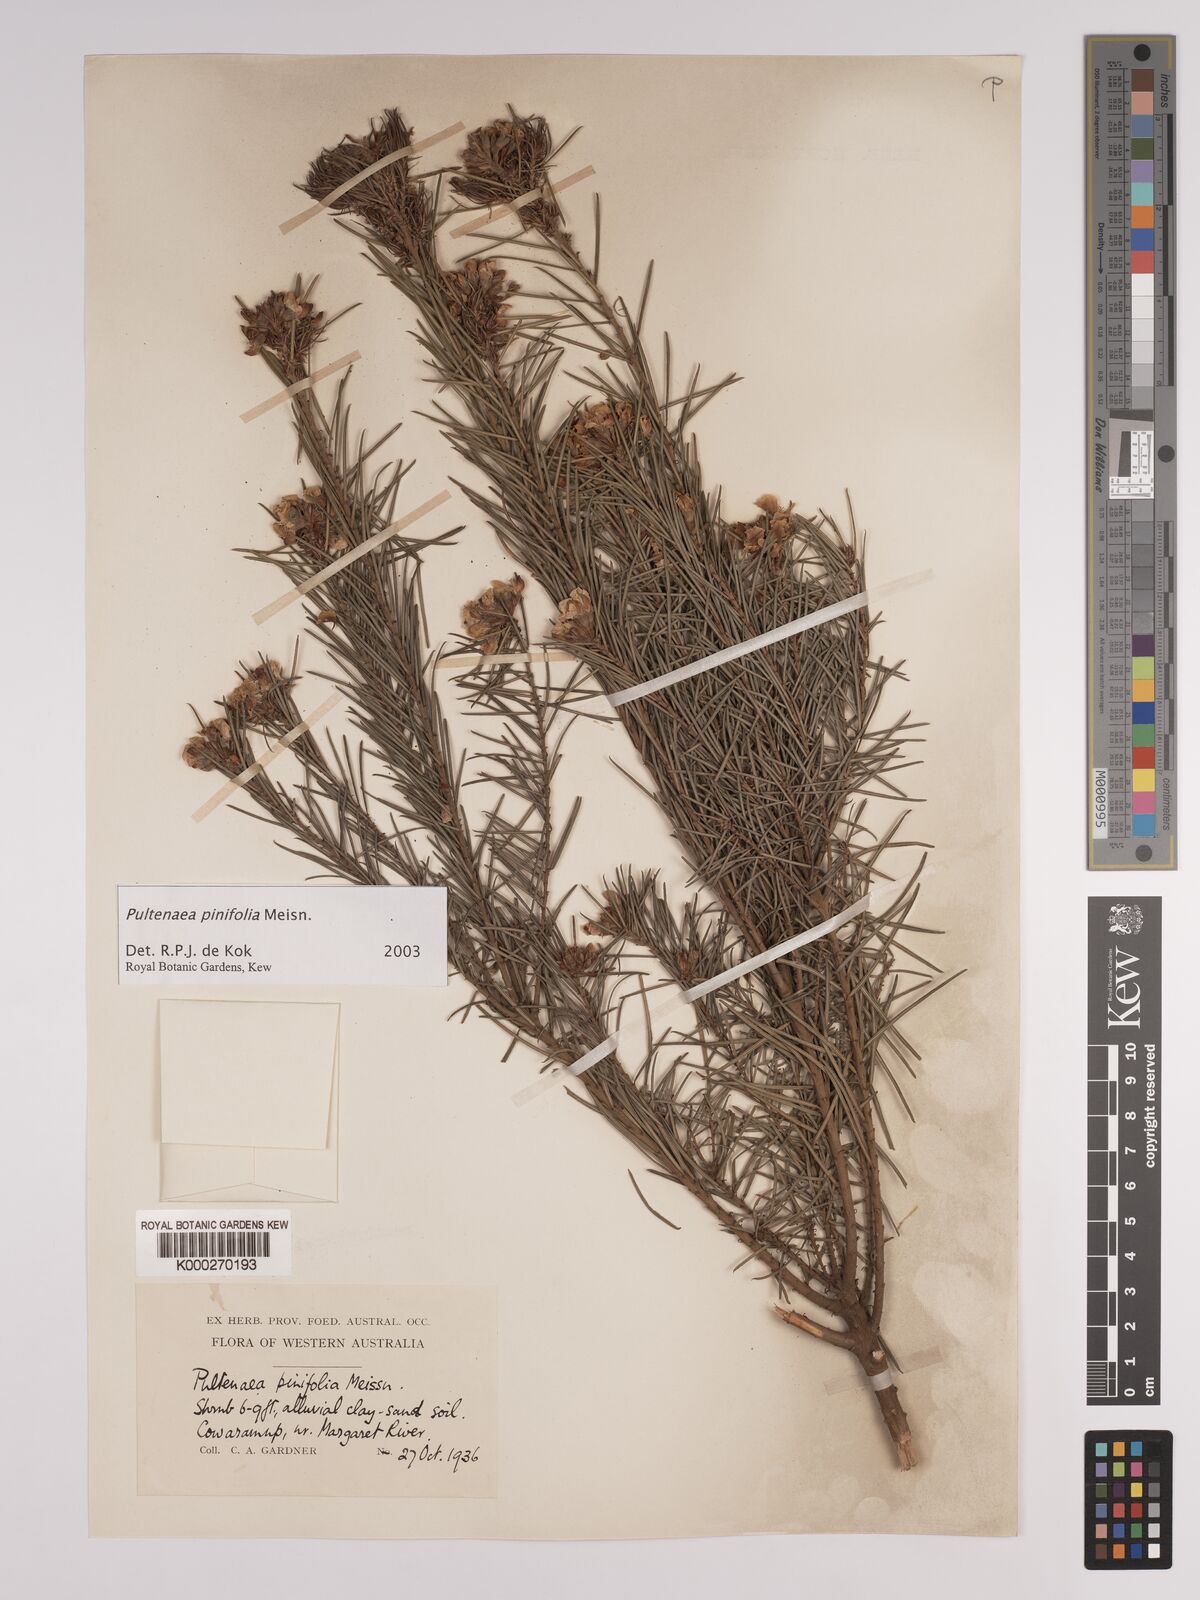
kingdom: Plantae
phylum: Tracheophyta
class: Magnoliopsida
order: Fabales
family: Fabaceae
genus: Pultenaea
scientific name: Pultenaea pinifolia
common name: Tree pultenaea
